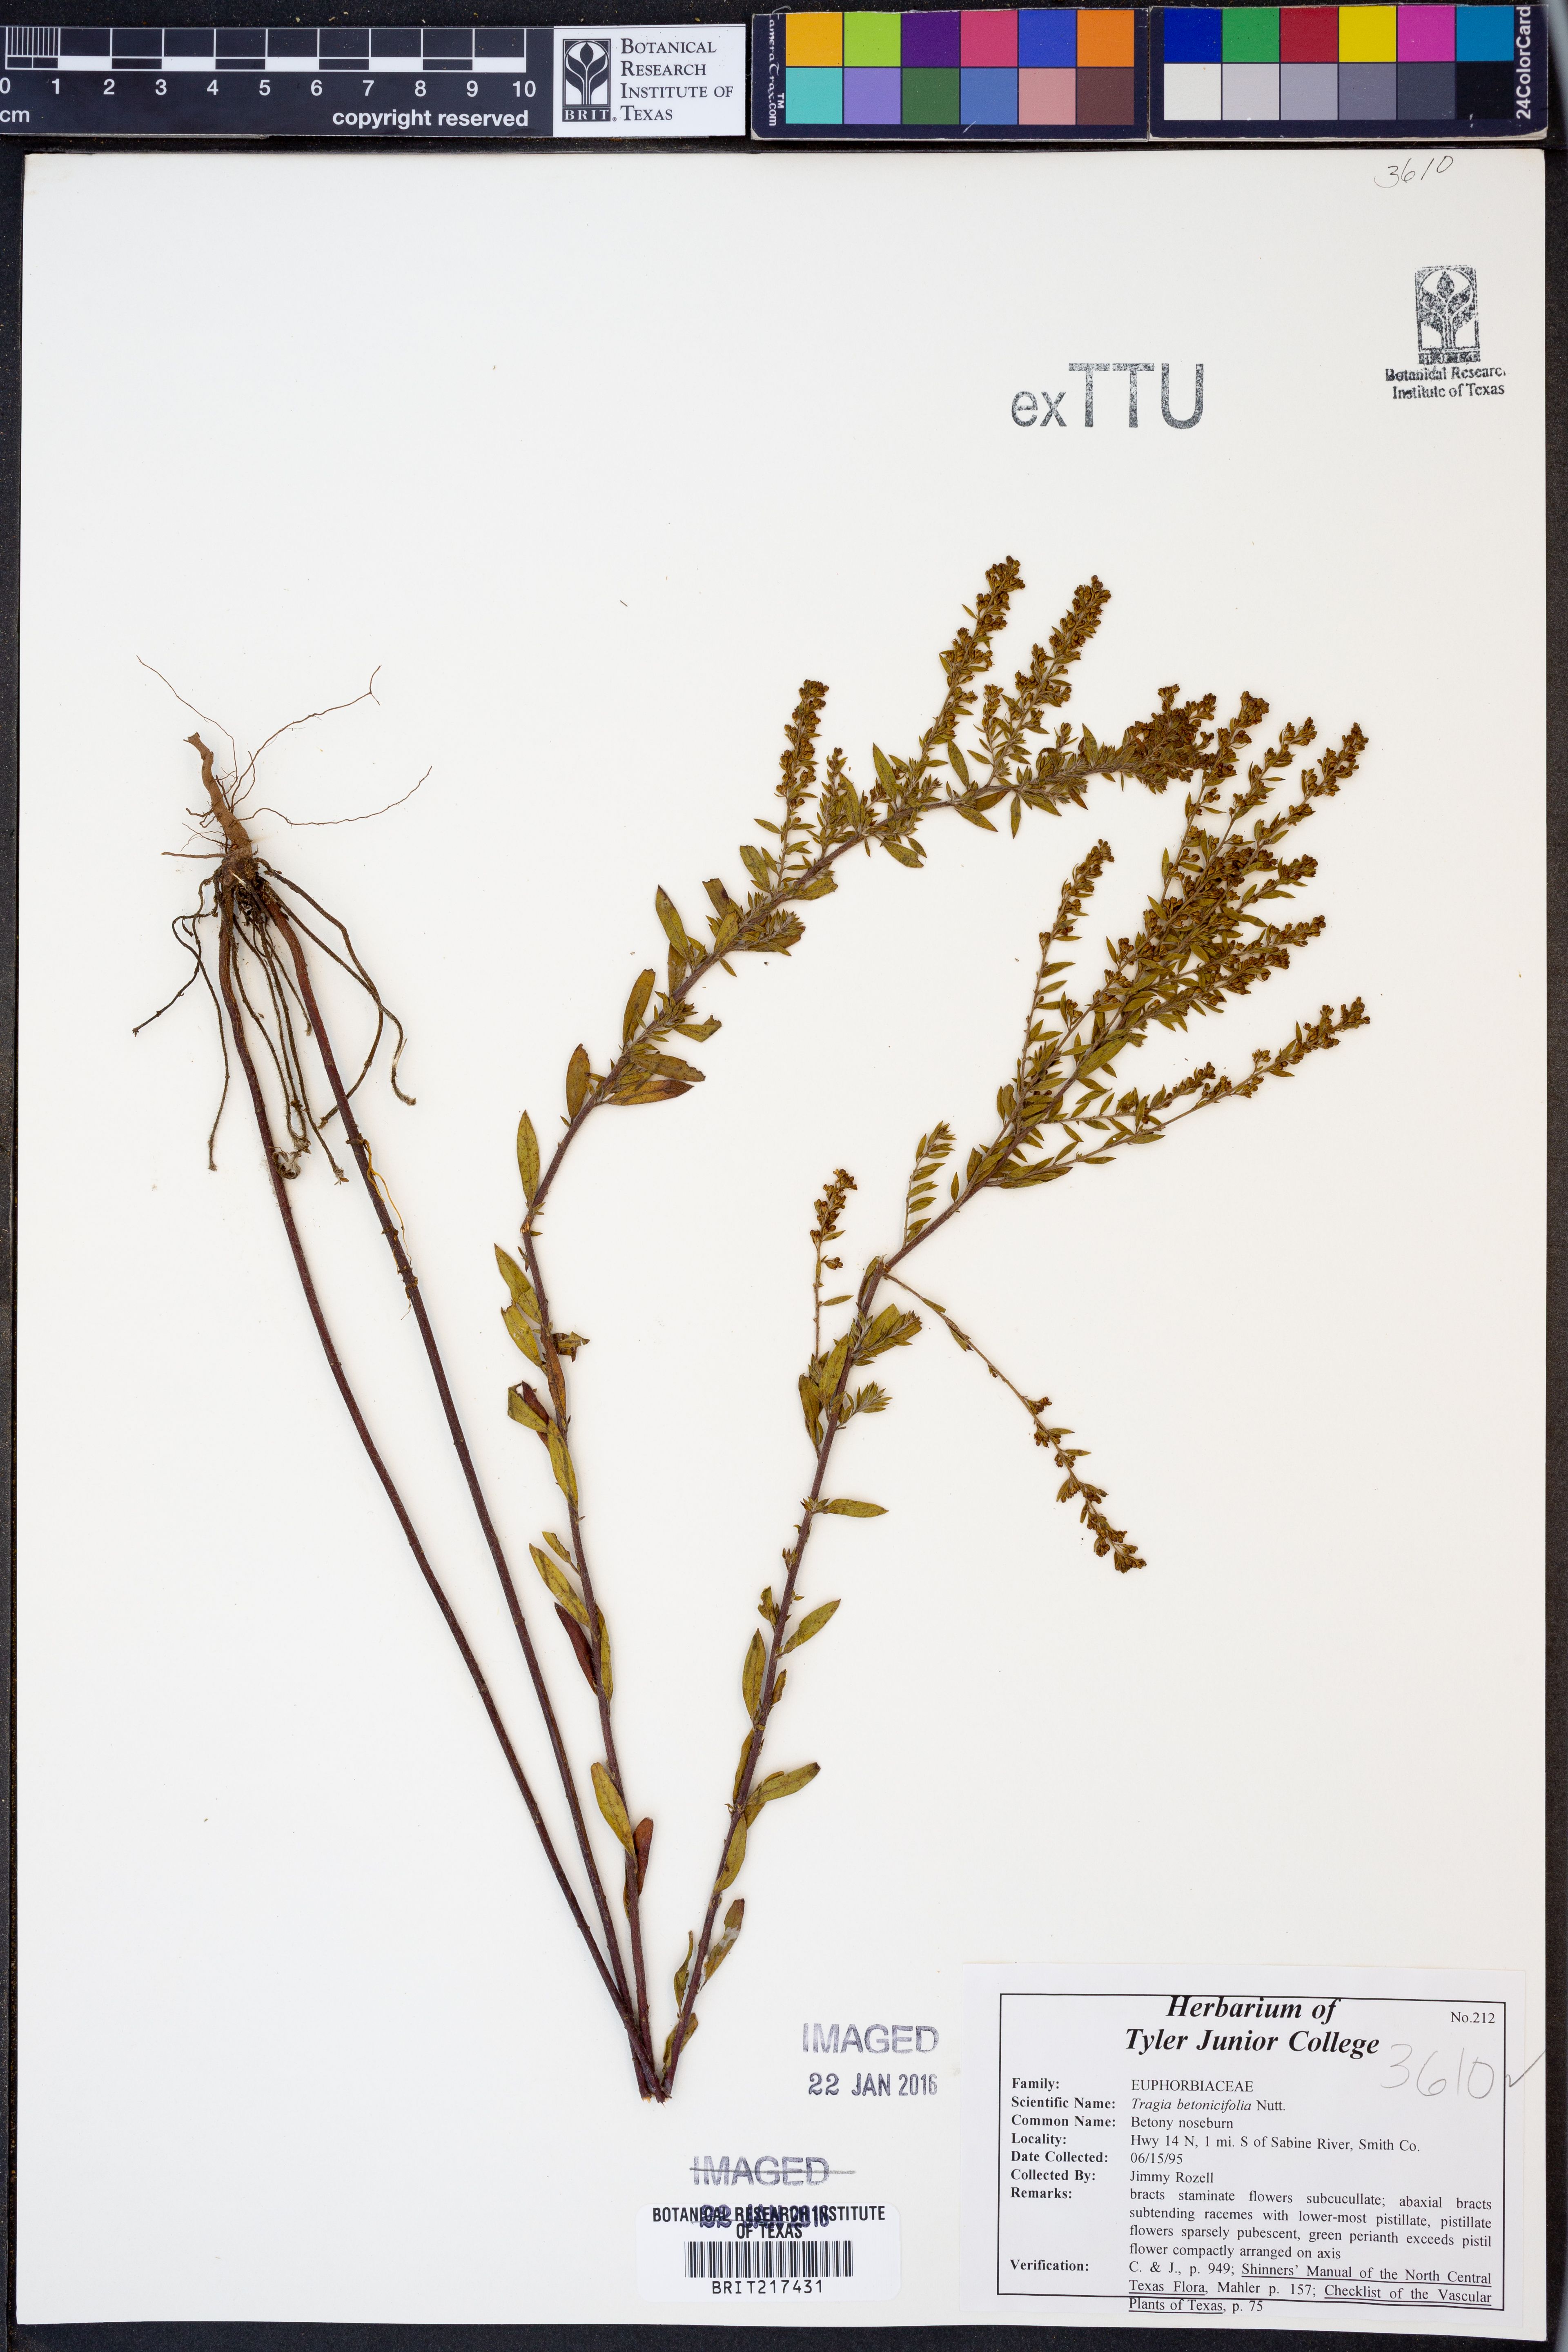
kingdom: Plantae
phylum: Tracheophyta
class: Magnoliopsida
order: Malpighiales
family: Euphorbiaceae
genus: Tragia
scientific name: Tragia betonicifolia
